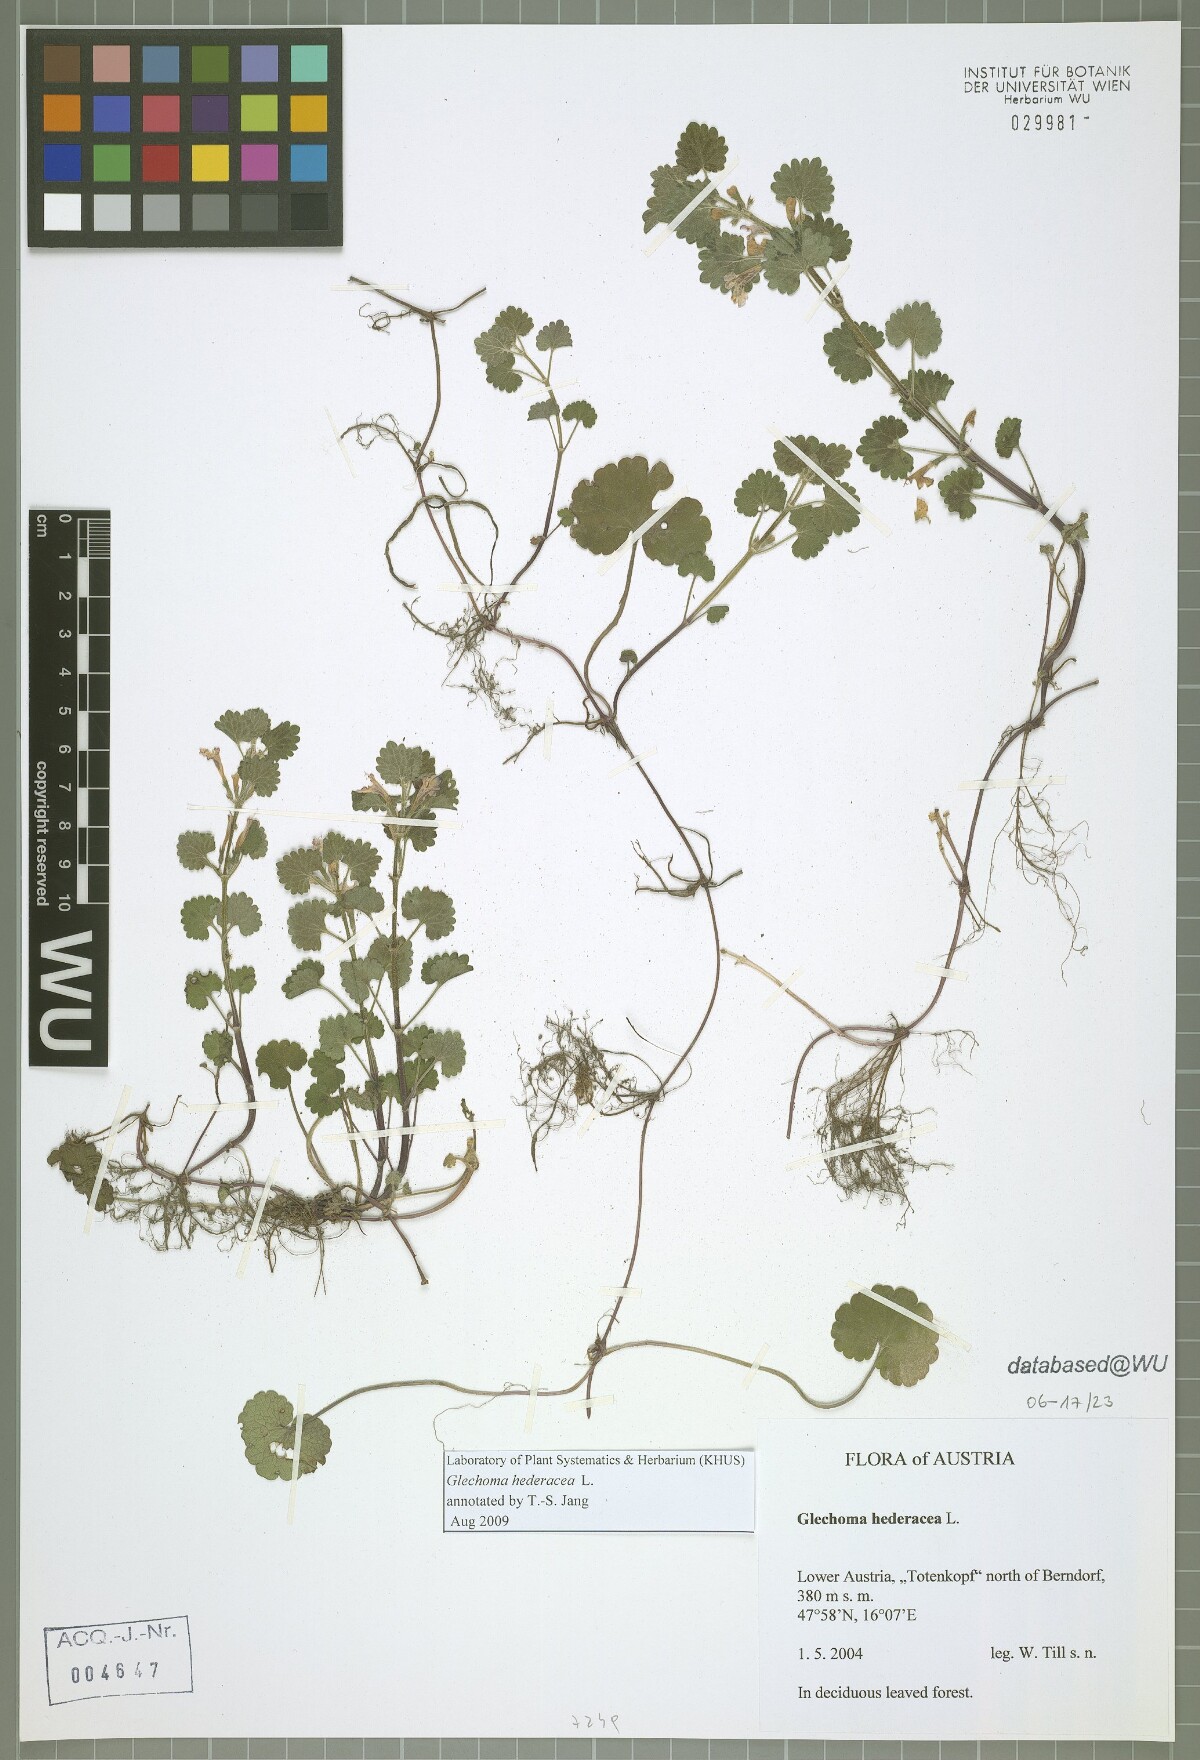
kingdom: Plantae
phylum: Tracheophyta
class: Magnoliopsida
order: Lamiales
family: Lamiaceae
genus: Glechoma
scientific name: Glechoma hederacea
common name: Ground ivy
